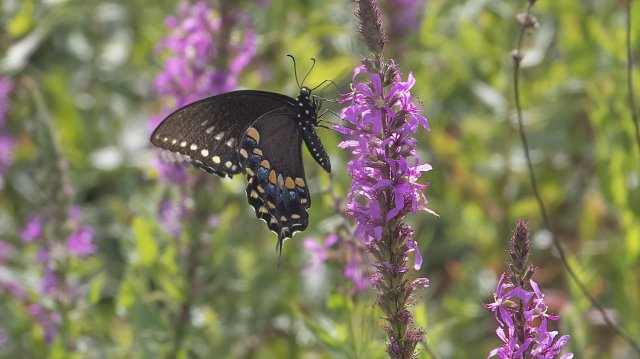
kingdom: Animalia
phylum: Arthropoda
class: Insecta
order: Lepidoptera
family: Papilionidae
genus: Pterourus
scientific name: Pterourus troilus
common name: Spicebush Swallowtail
